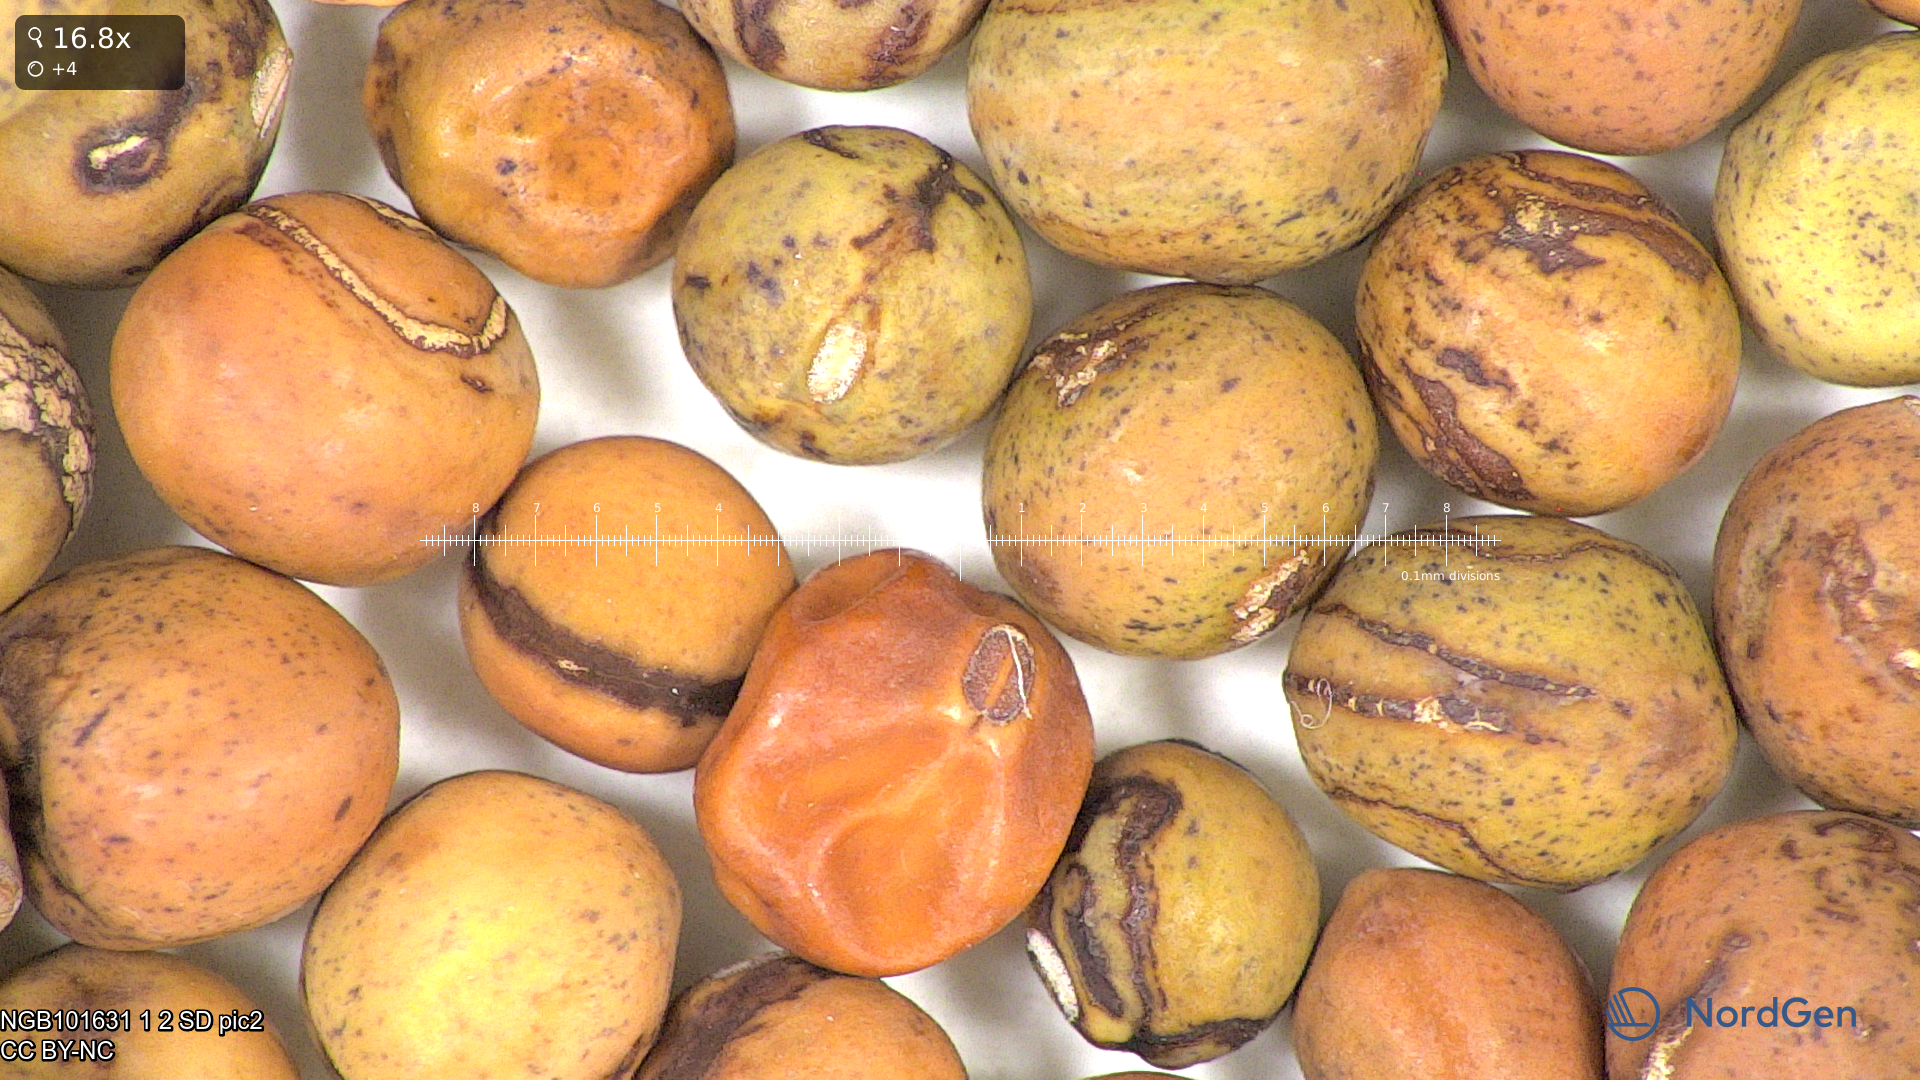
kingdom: Plantae
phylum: Tracheophyta
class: Magnoliopsida
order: Fabales
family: Fabaceae
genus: Lathyrus
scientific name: Lathyrus oleraceus
